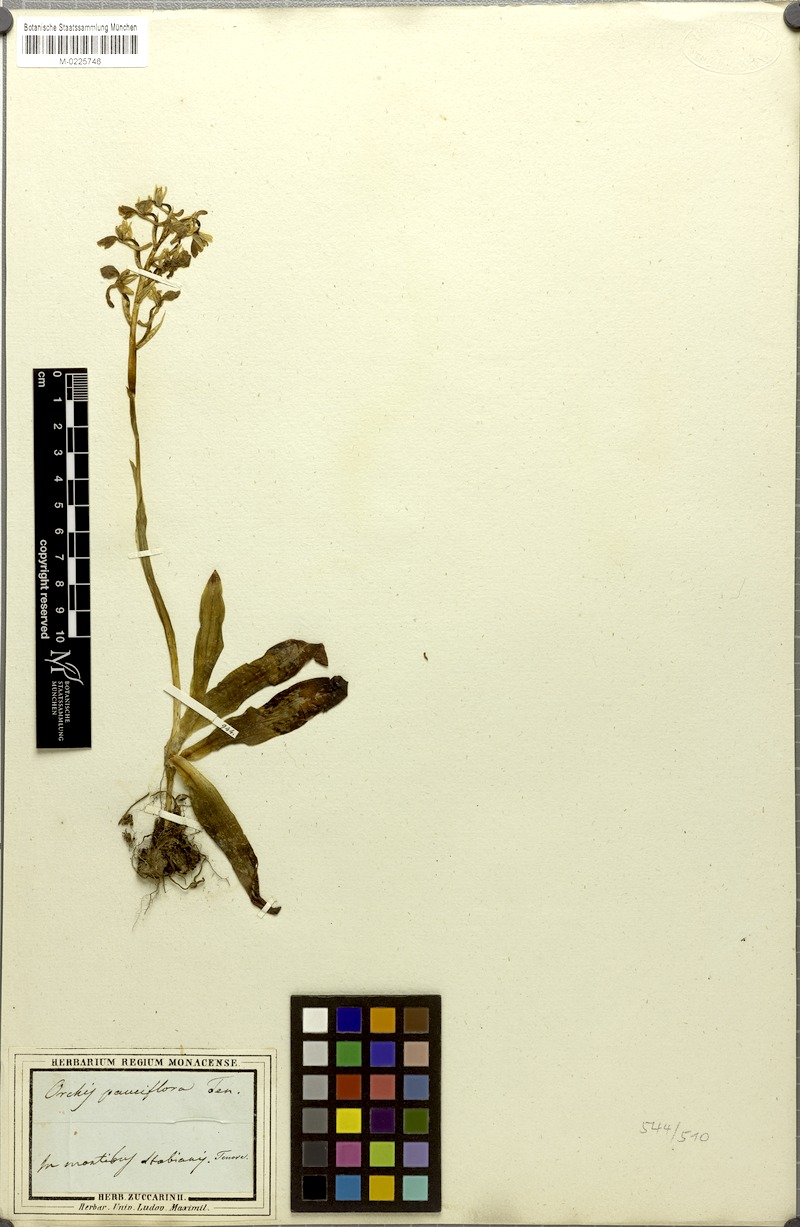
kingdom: Plantae
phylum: Tracheophyta
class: Liliopsida
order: Asparagales
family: Orchidaceae
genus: Orchis
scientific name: Orchis pauciflora
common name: Few-flowered orchid
